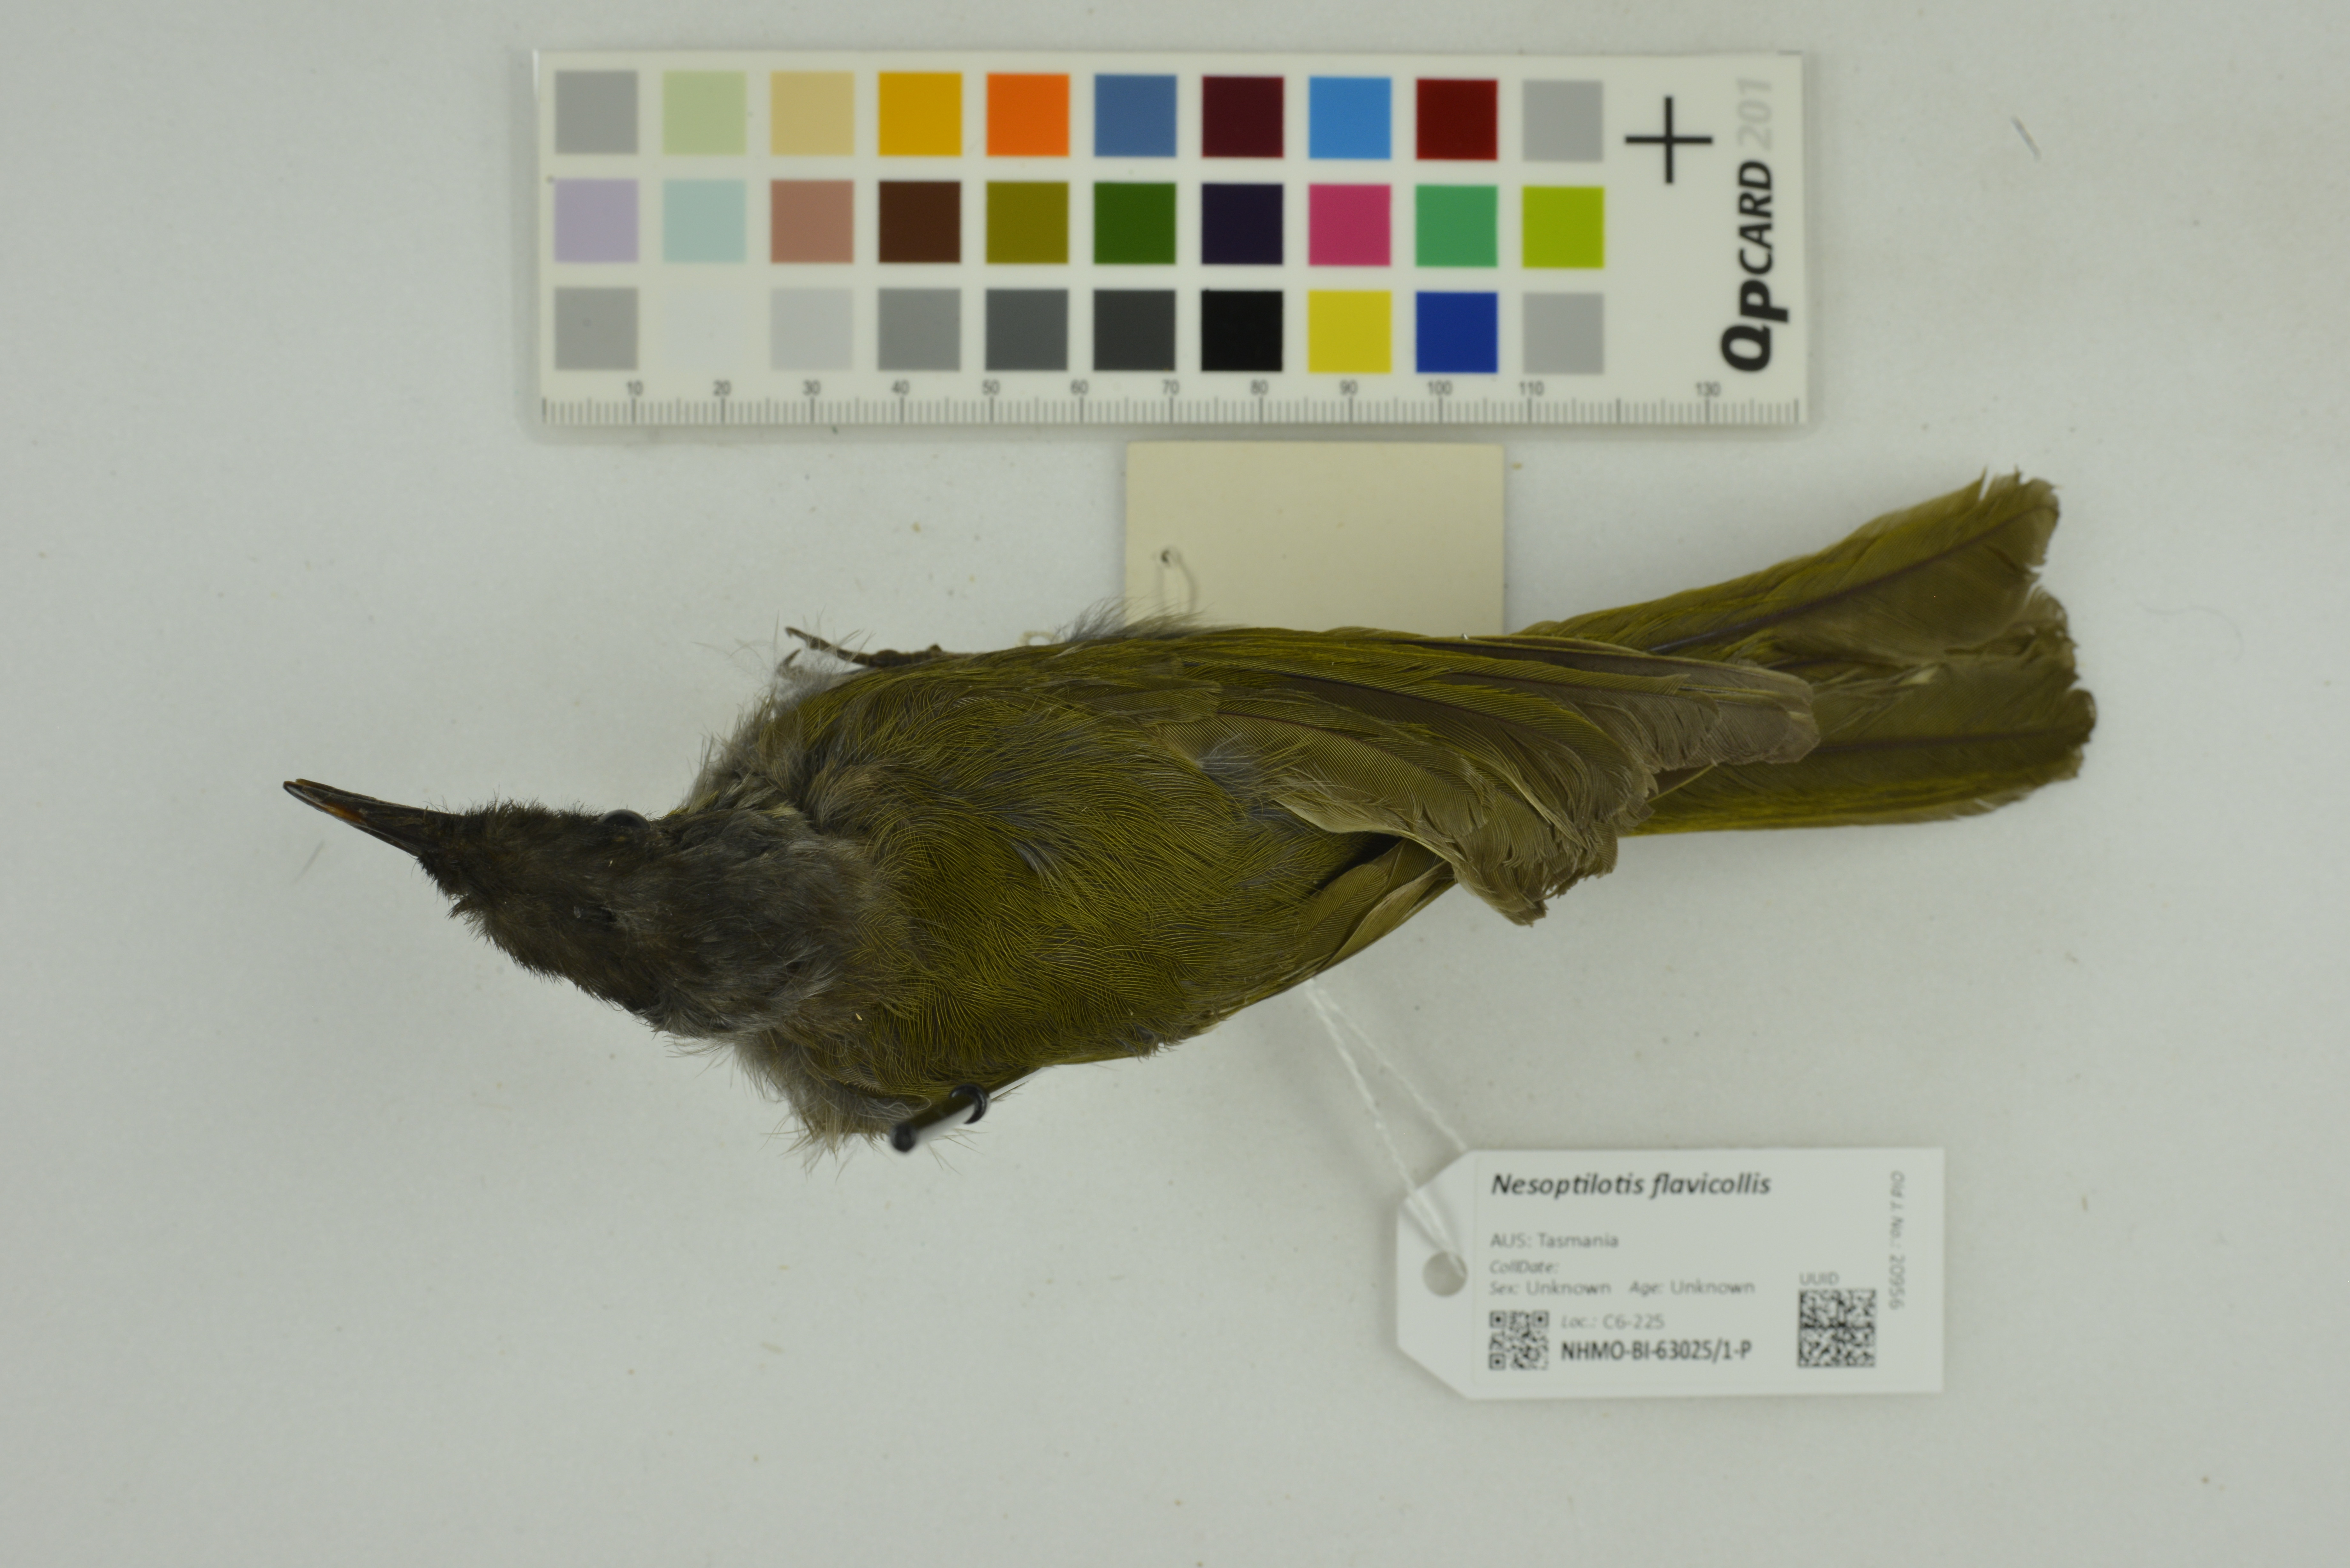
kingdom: Animalia
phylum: Chordata
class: Aves
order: Passeriformes
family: Meliphagidae
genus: Nesoptilotis
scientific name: Nesoptilotis flavicollis
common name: Yellow-throated honeyeater
